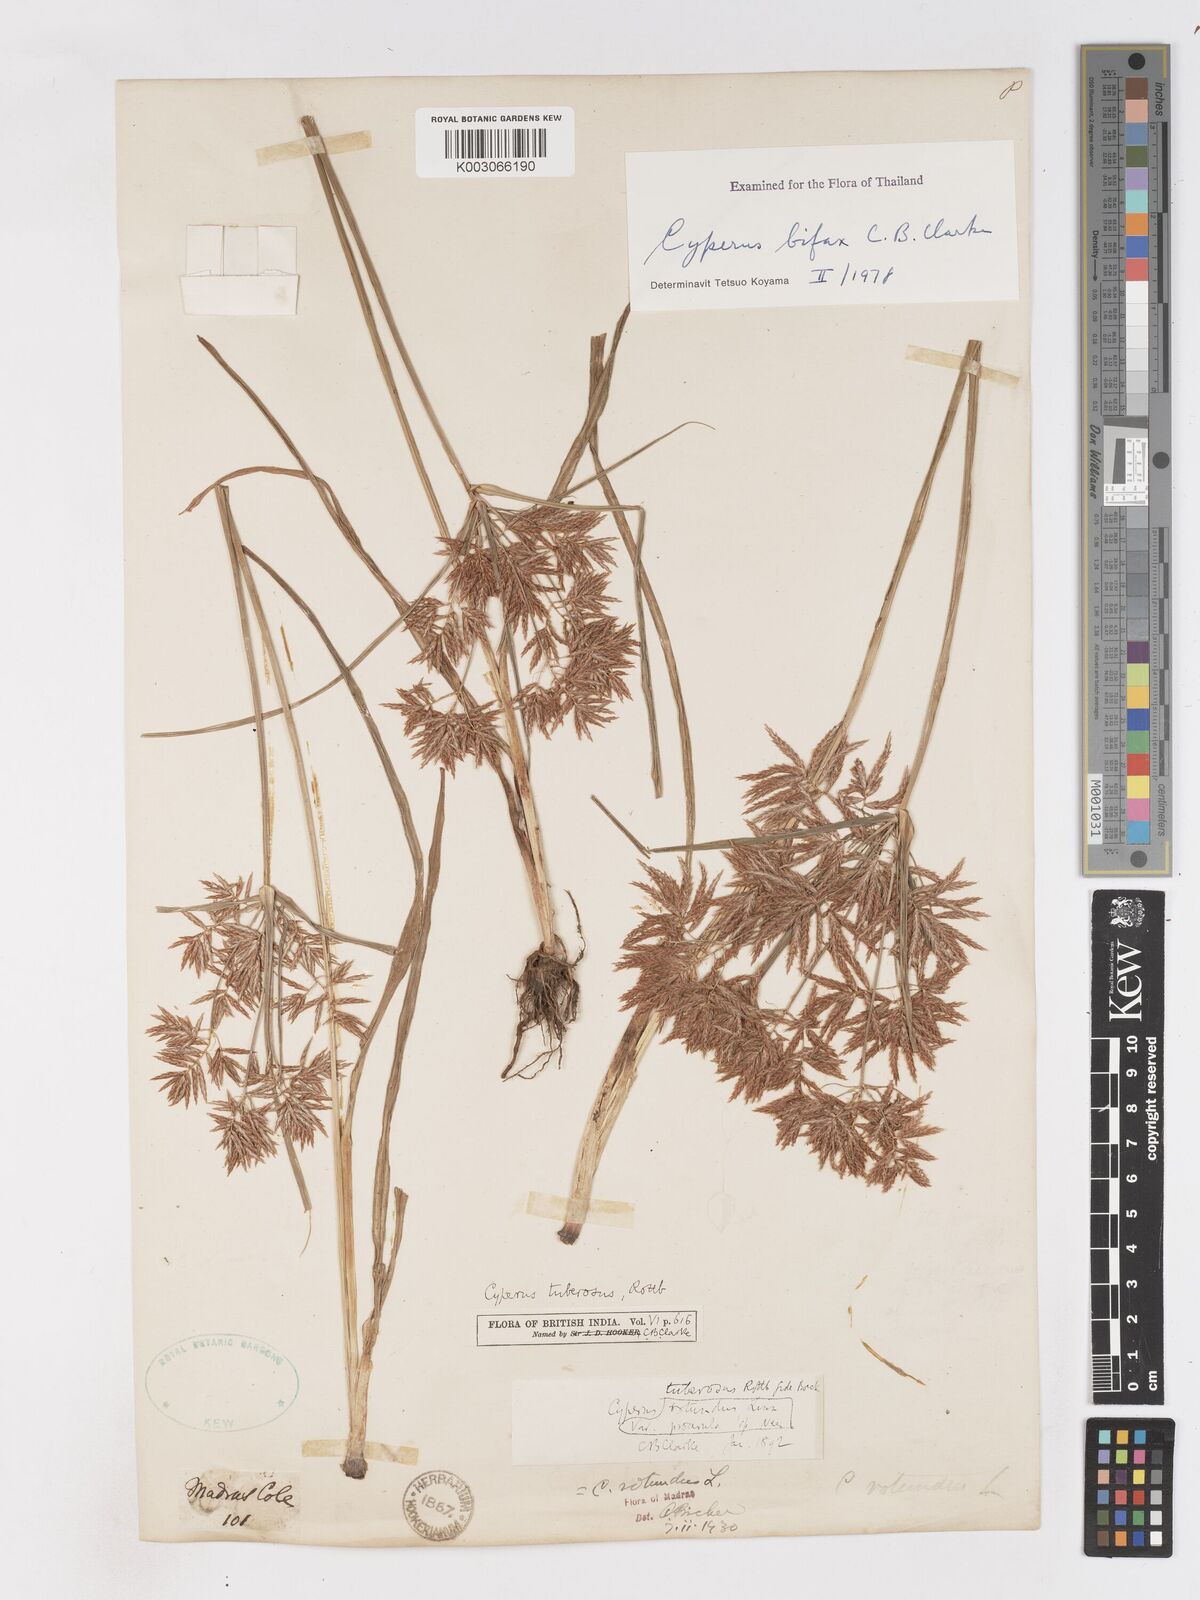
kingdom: Plantae
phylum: Tracheophyta
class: Liliopsida
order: Poales
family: Cyperaceae
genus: Cyperus
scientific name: Cyperus bifax
